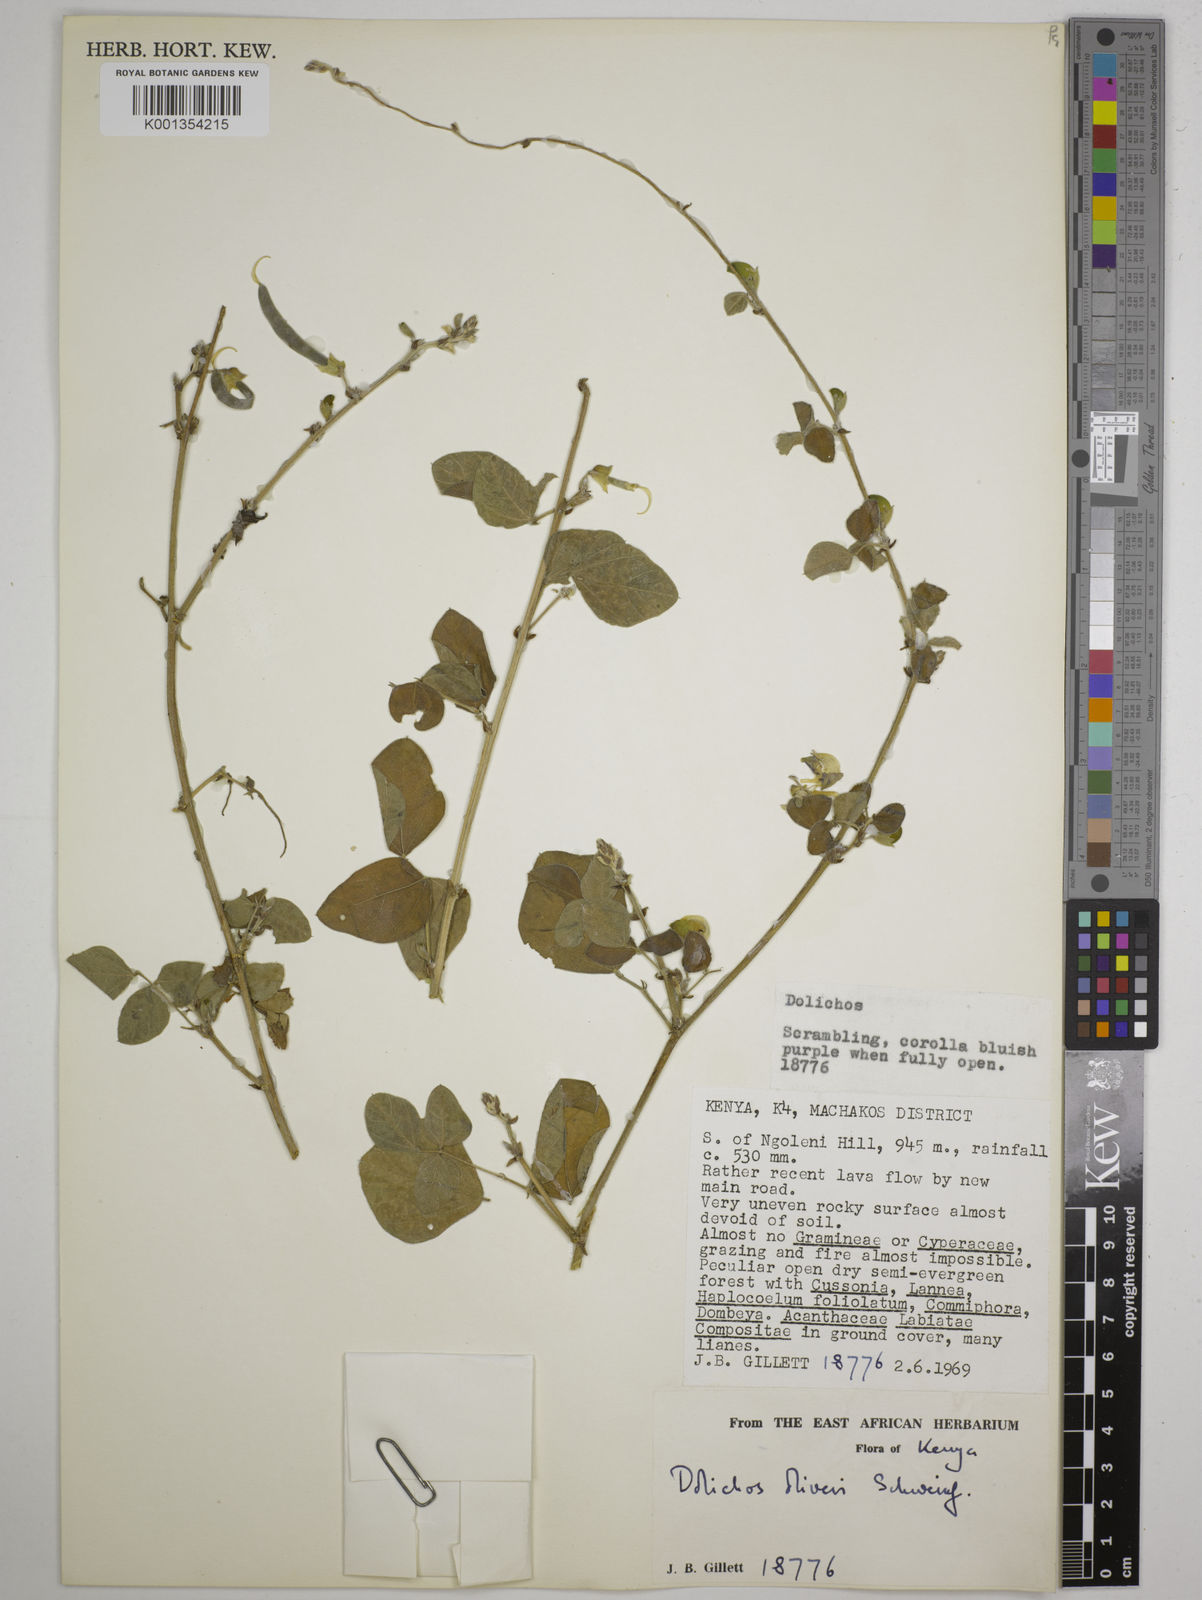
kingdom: Plantae
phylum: Tracheophyta
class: Magnoliopsida
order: Fabales
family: Fabaceae
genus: Dolichos
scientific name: Dolichos oliveri
